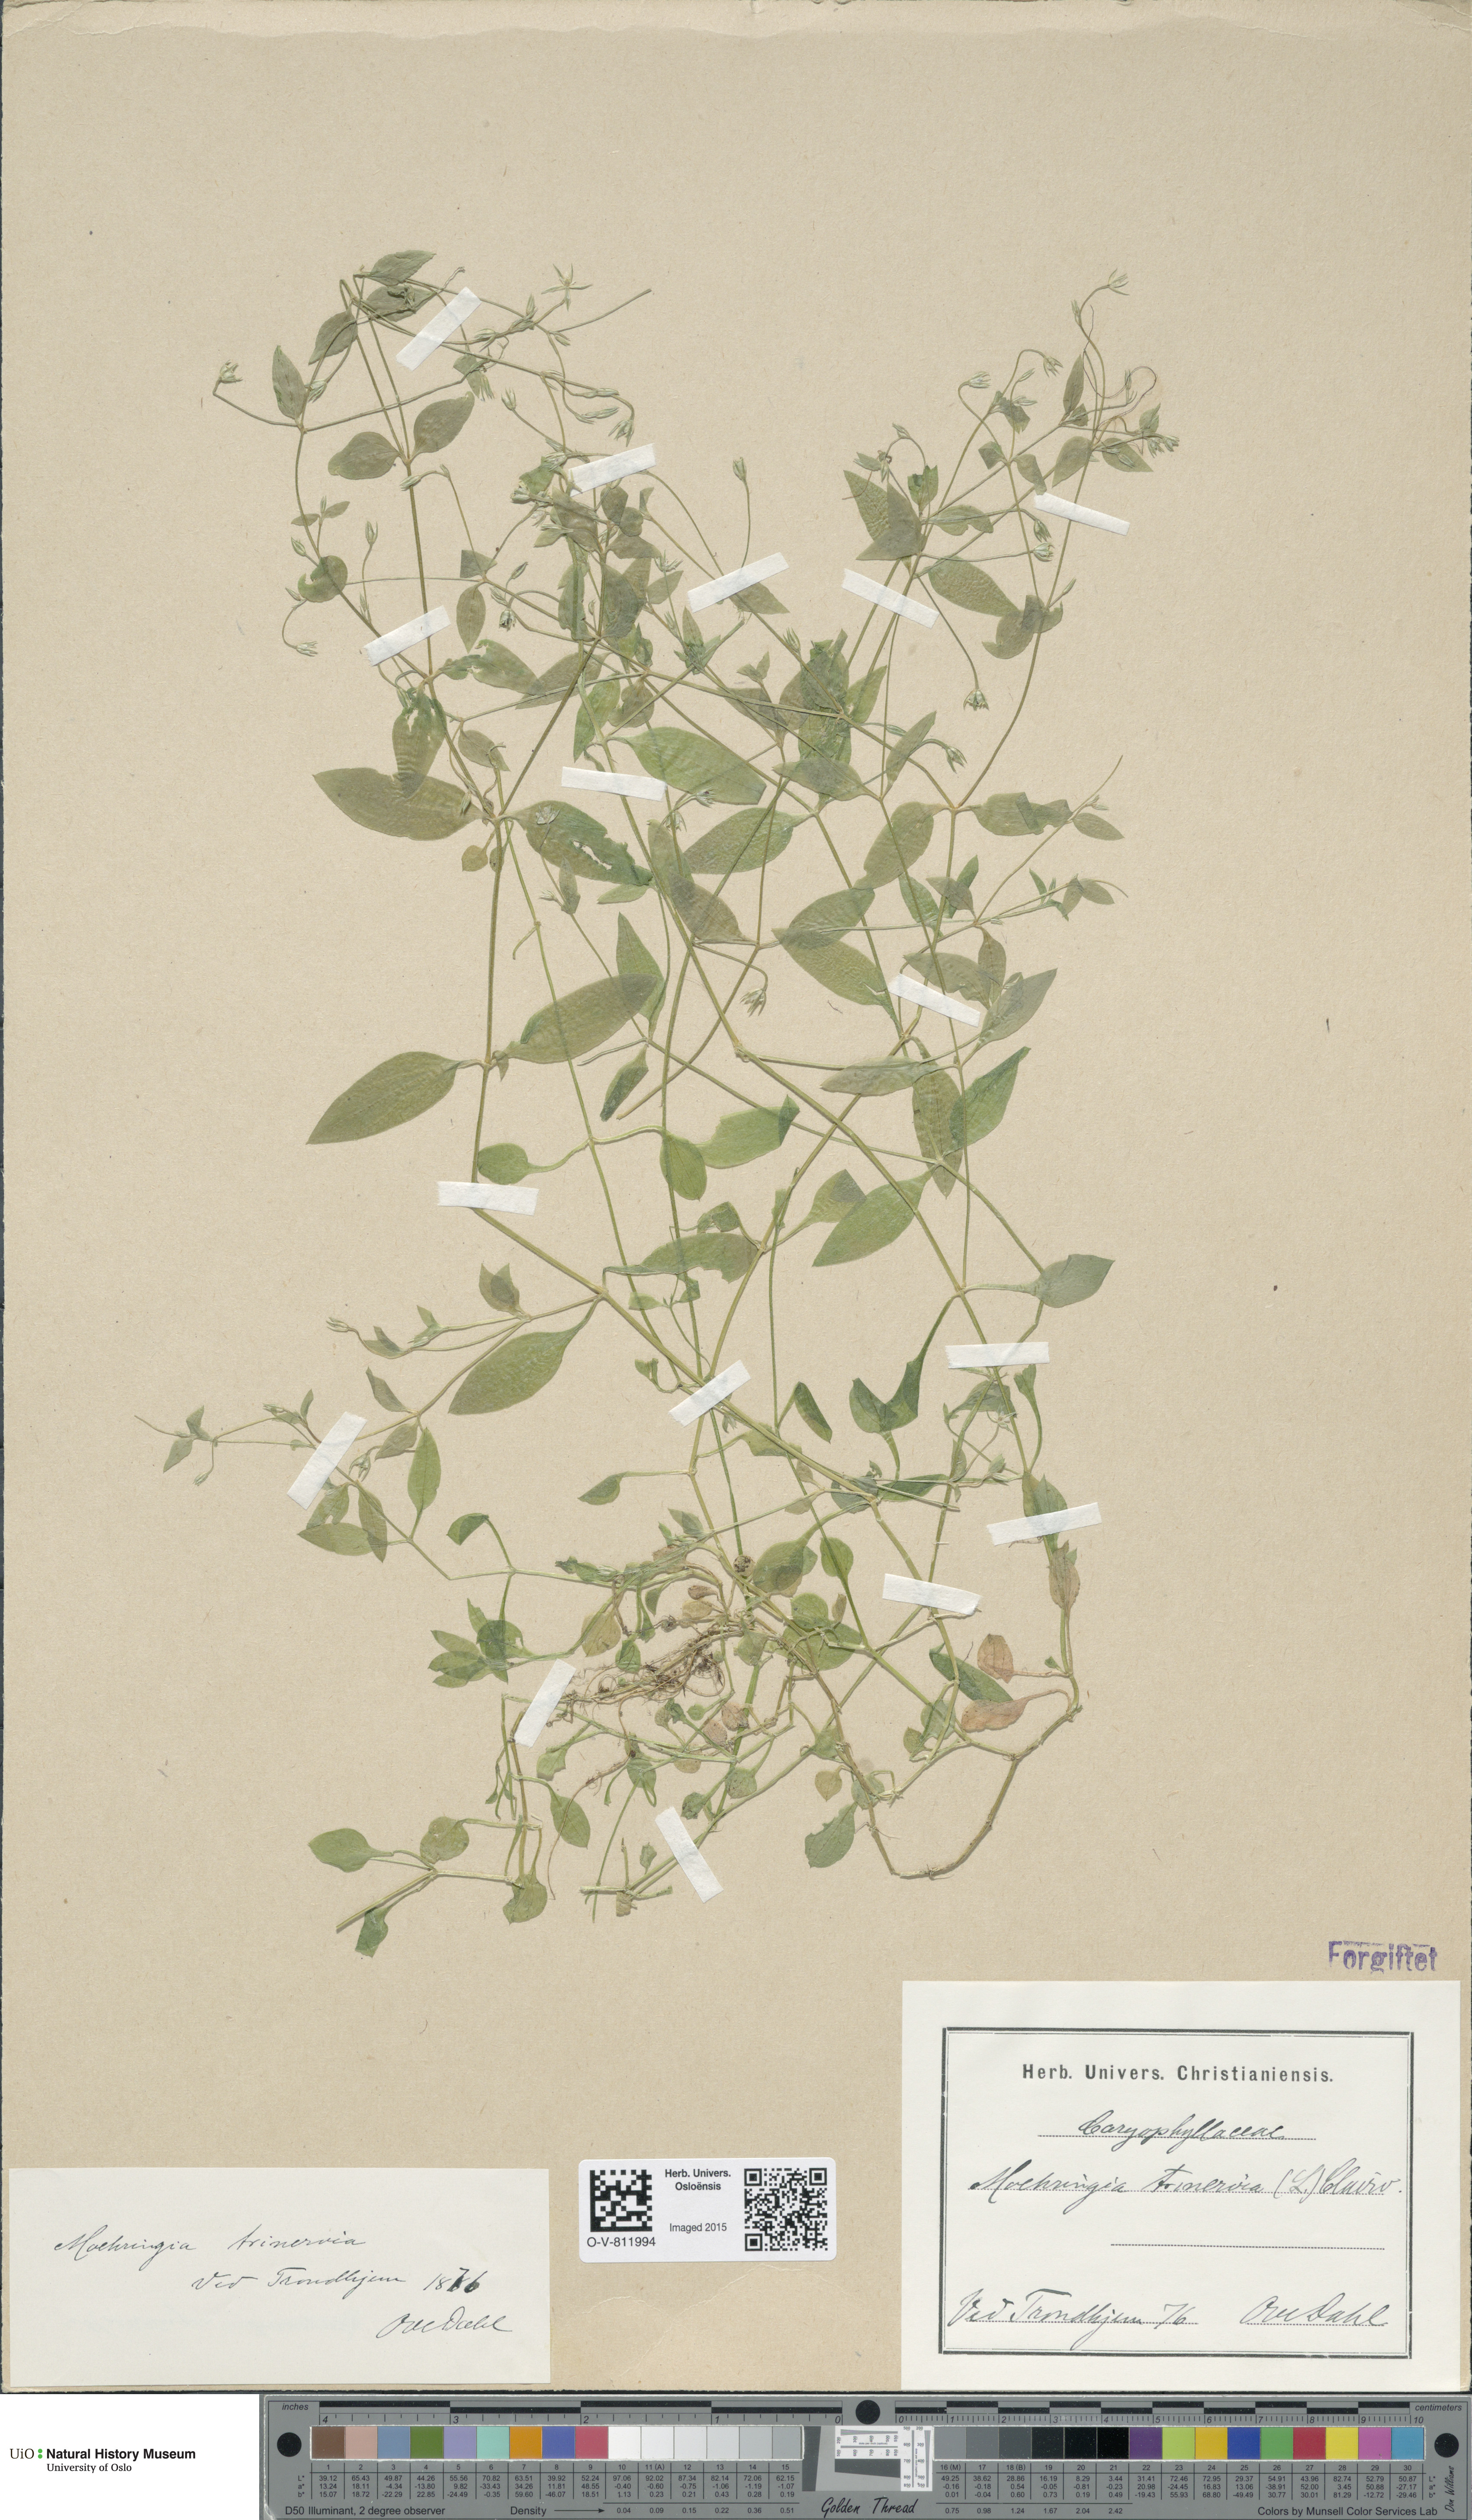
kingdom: Plantae
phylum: Tracheophyta
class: Magnoliopsida
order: Caryophyllales
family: Caryophyllaceae
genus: Moehringia
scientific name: Moehringia trinervia
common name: Three-nerved sandwort
